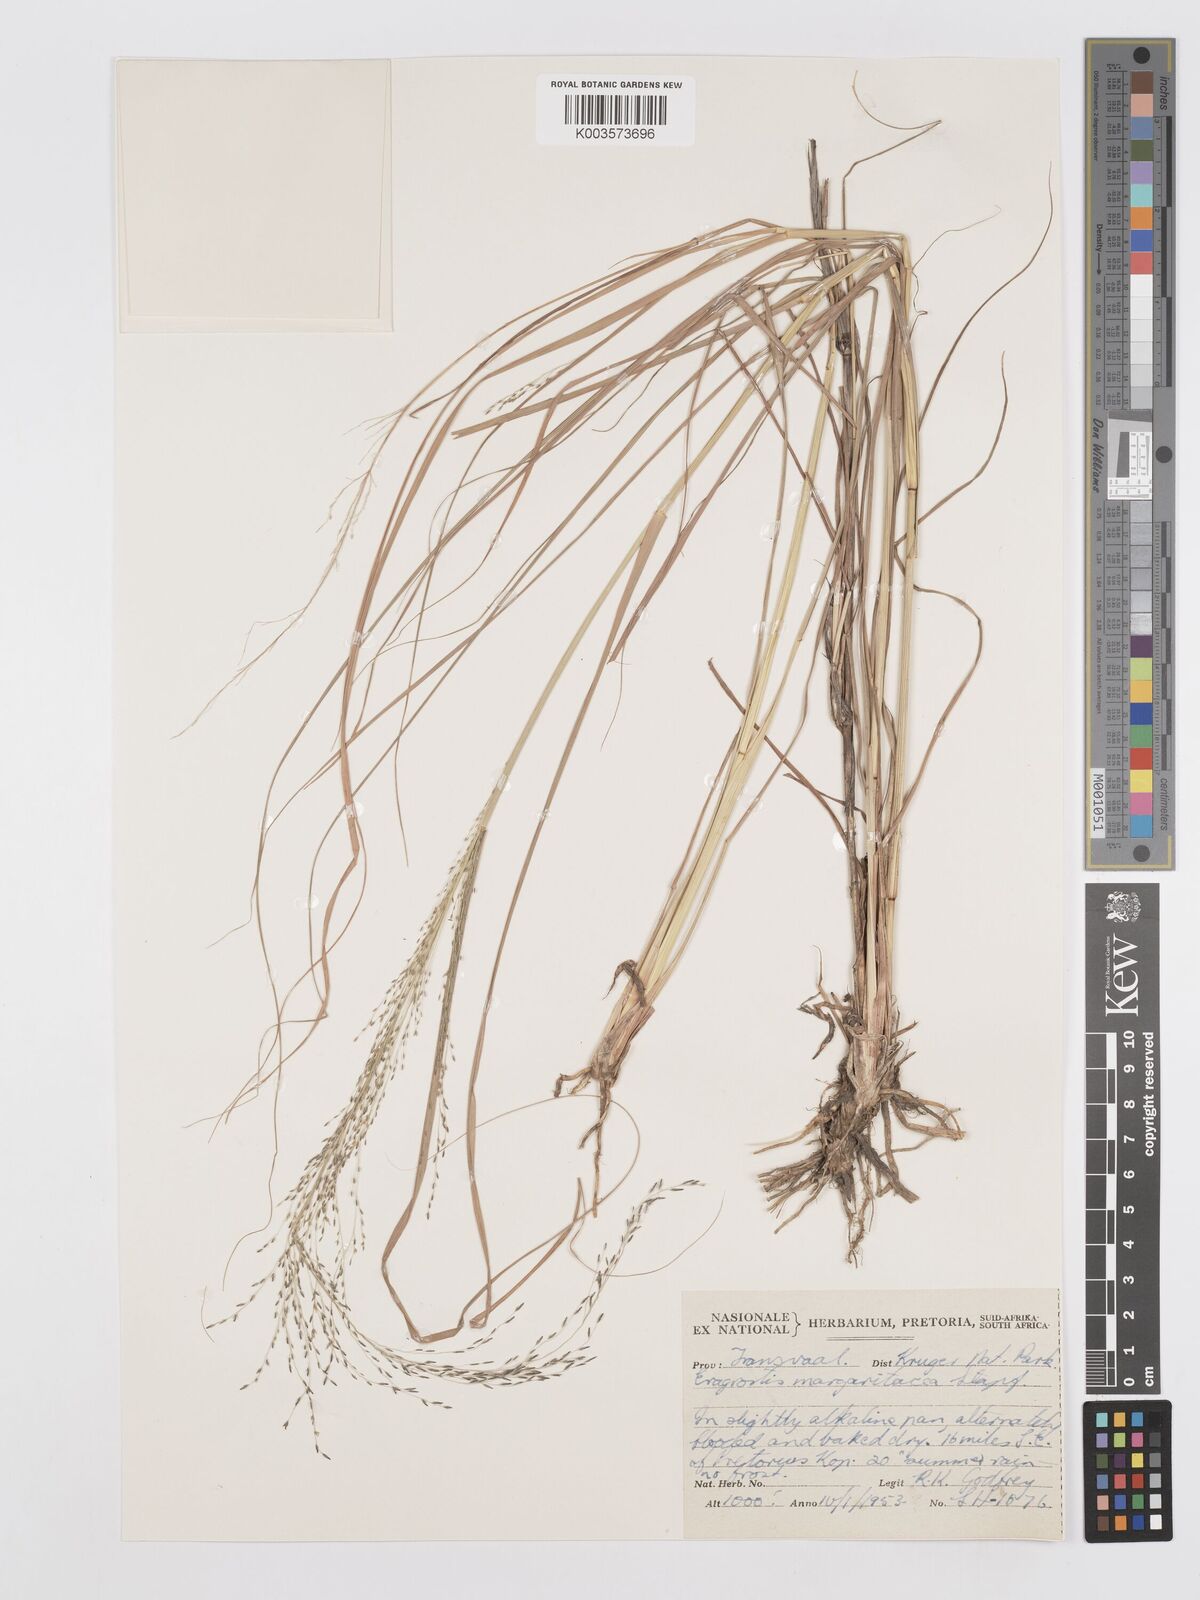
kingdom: Plantae
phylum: Tracheophyta
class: Liliopsida
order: Poales
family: Poaceae
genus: Eragrostis
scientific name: Eragrostis rotifer
